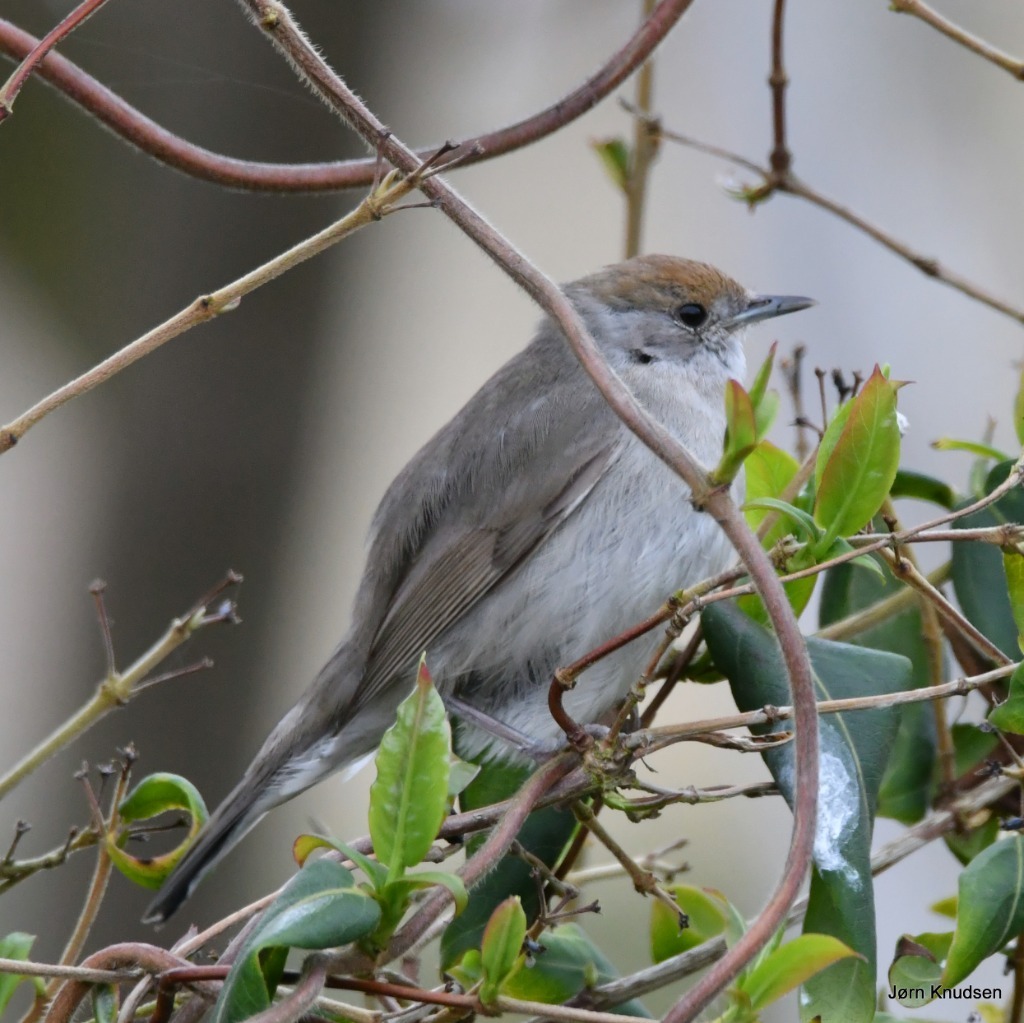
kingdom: Animalia
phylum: Chordata
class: Aves
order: Passeriformes
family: Sylviidae
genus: Sylvia
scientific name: Sylvia atricapilla
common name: Munk
